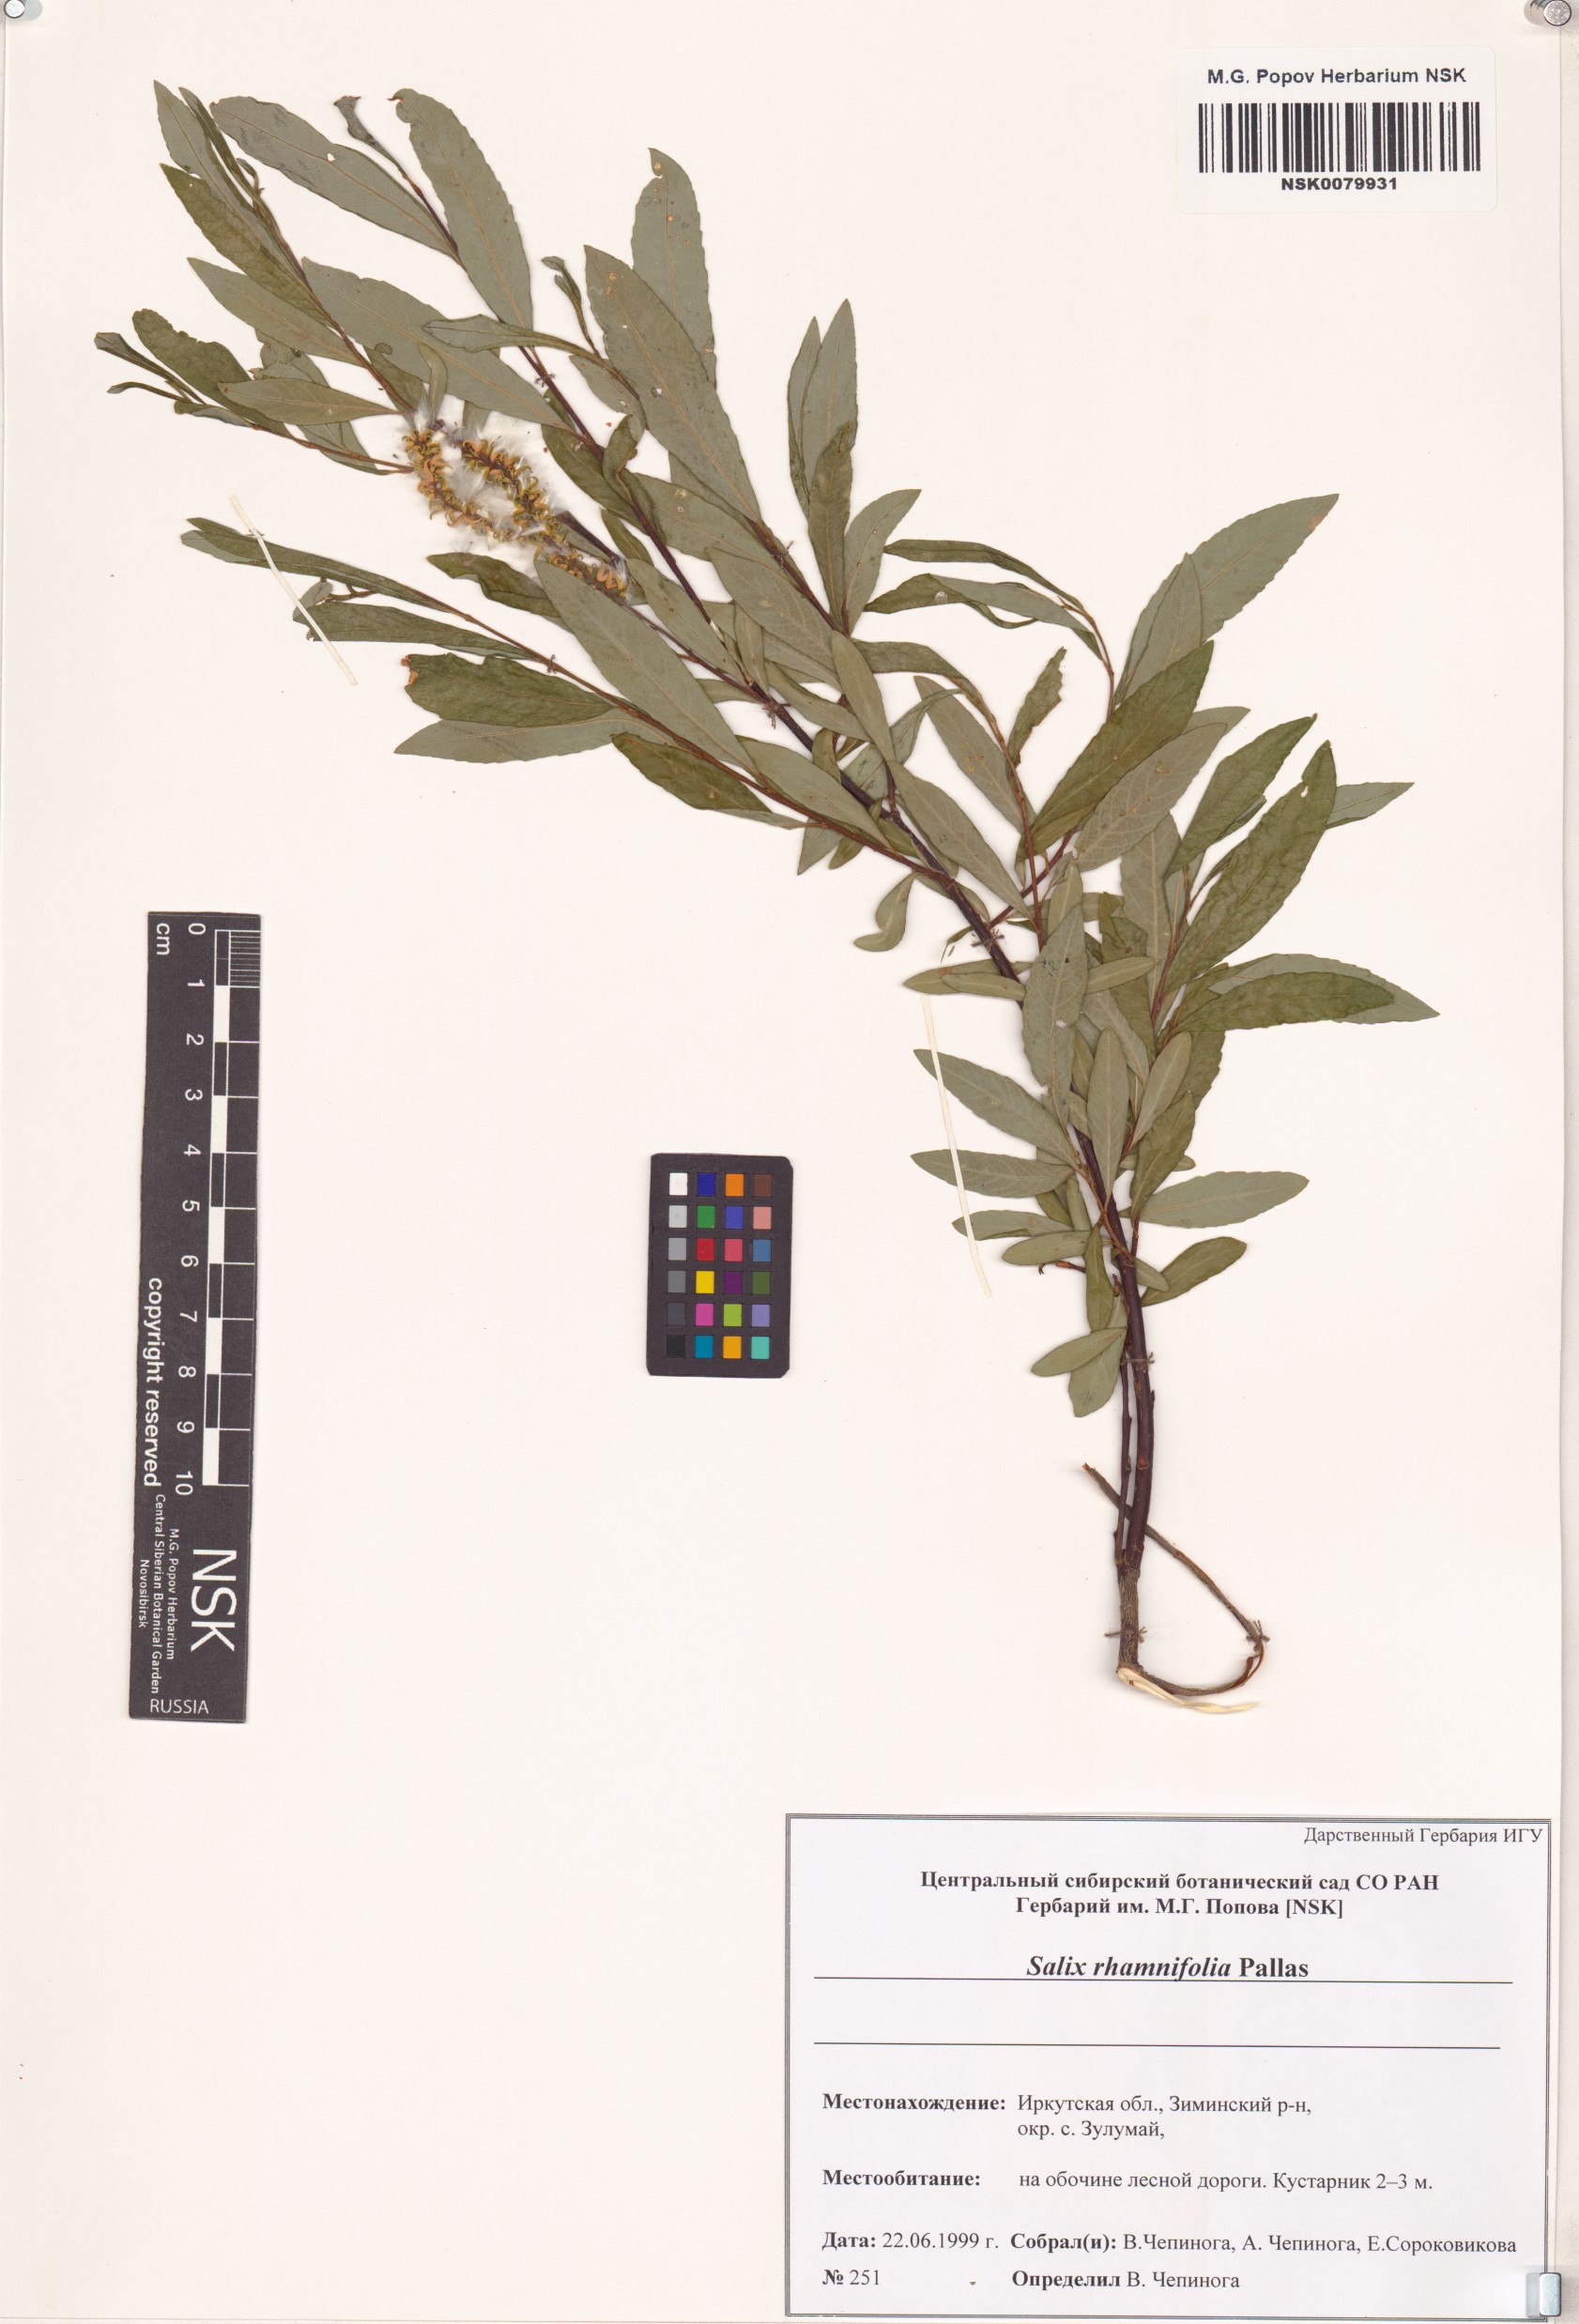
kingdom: Plantae
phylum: Tracheophyta
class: Magnoliopsida
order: Malpighiales
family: Salicaceae
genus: Salix
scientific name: Salix rhamnifolia
